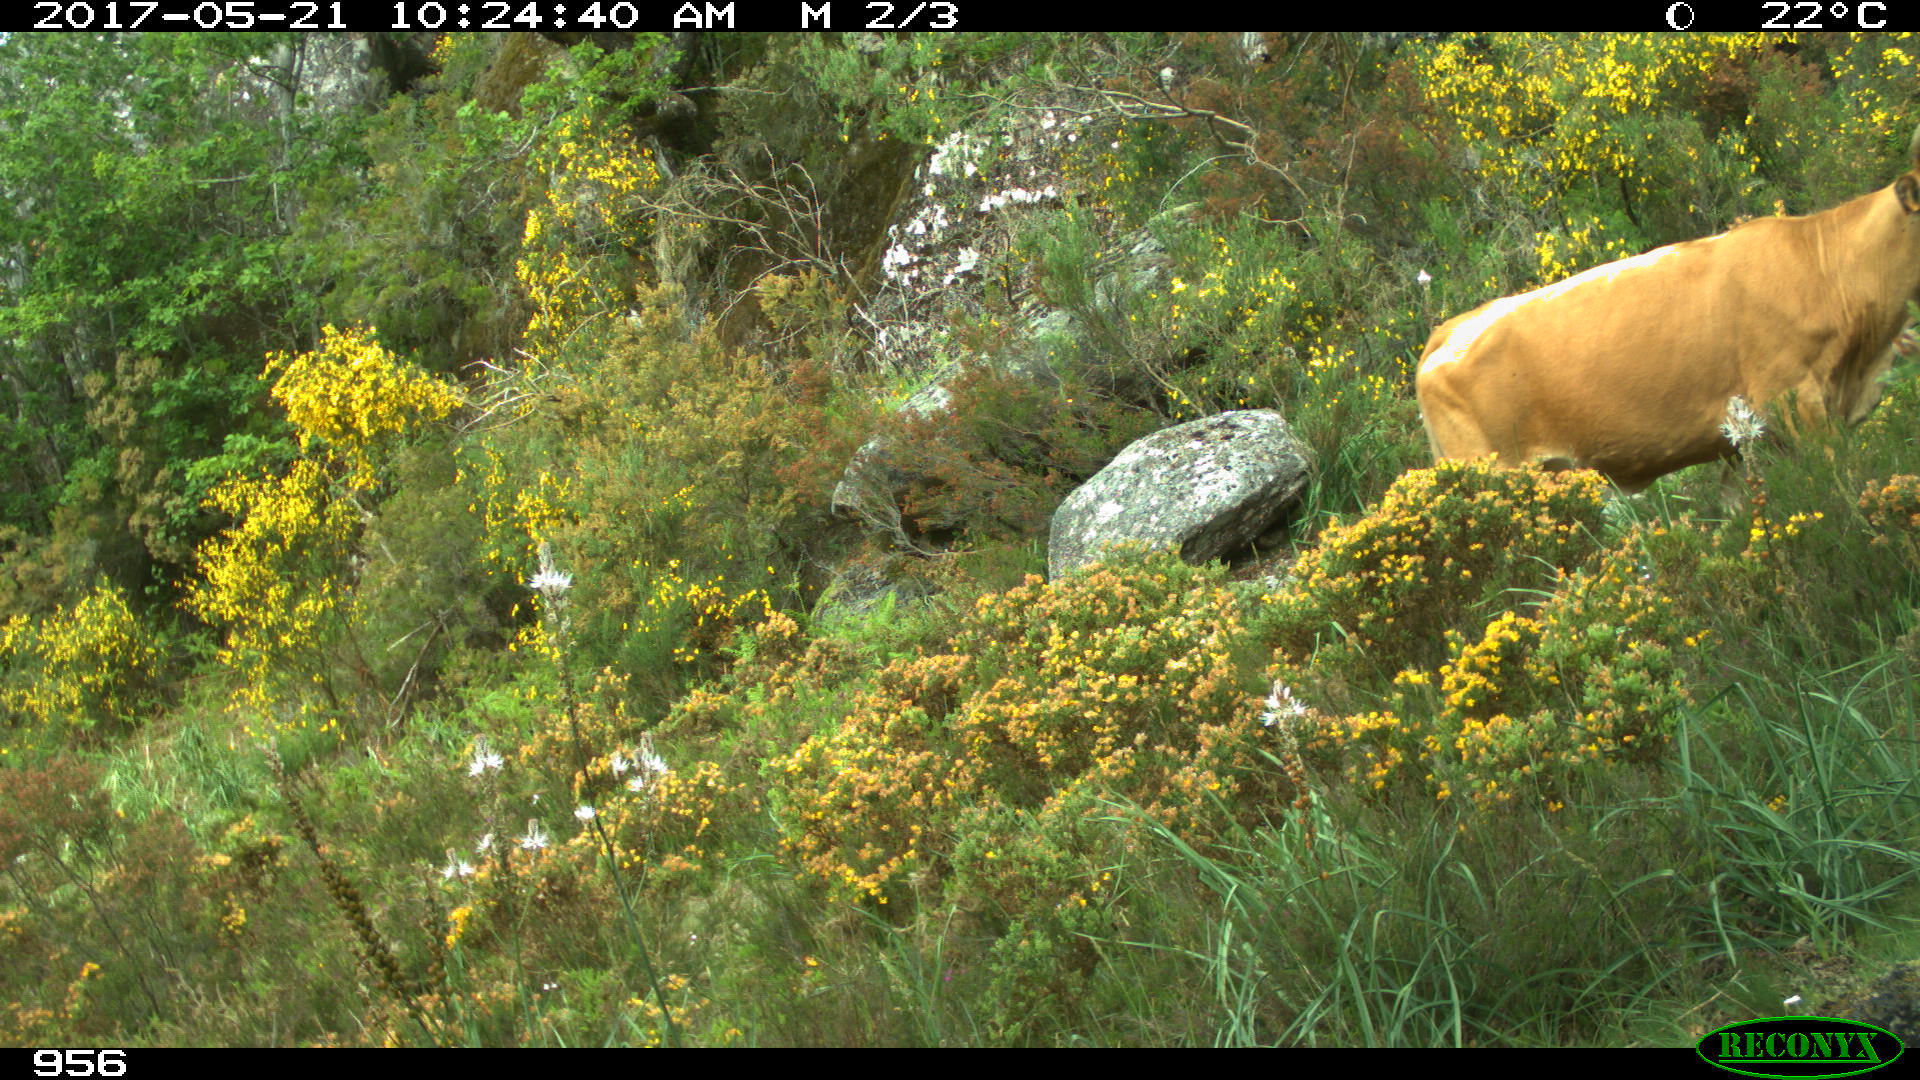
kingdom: Animalia
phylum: Chordata
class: Mammalia
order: Artiodactyla
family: Bovidae
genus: Bos
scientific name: Bos taurus
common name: Domesticated cattle
